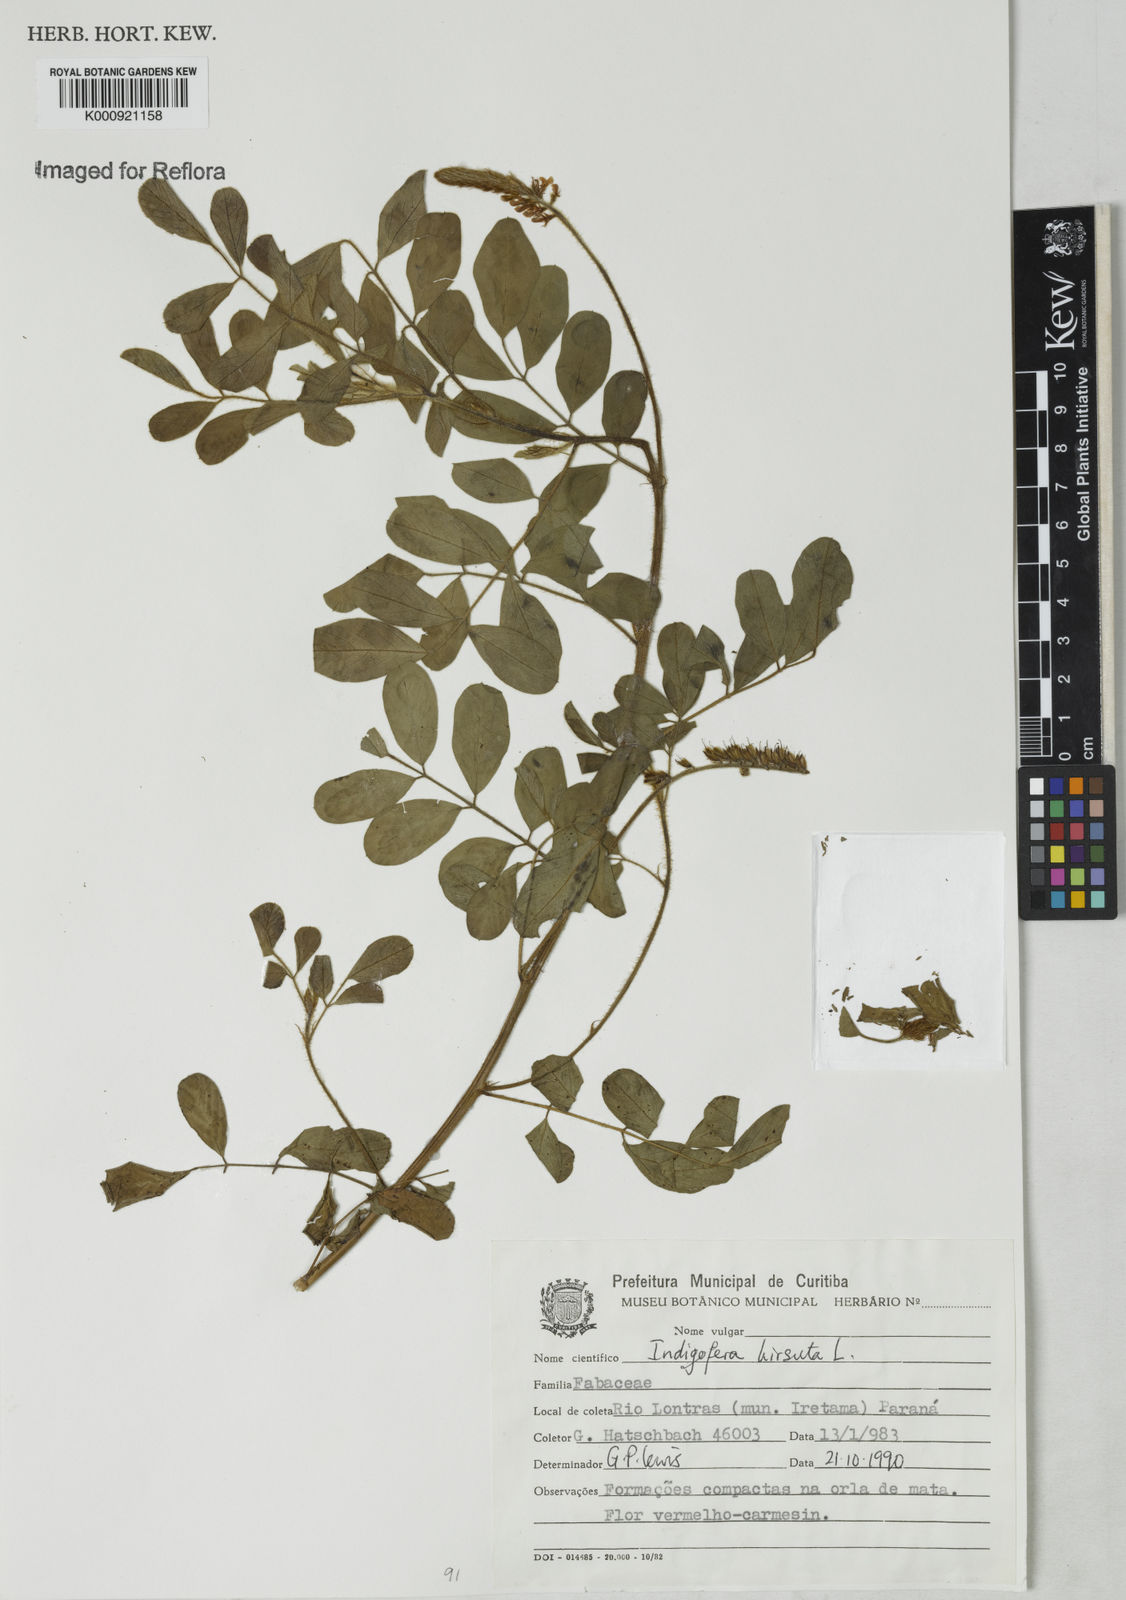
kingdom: Plantae
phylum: Tracheophyta
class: Magnoliopsida
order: Fabales
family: Fabaceae
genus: Indigofera
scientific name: Indigofera
